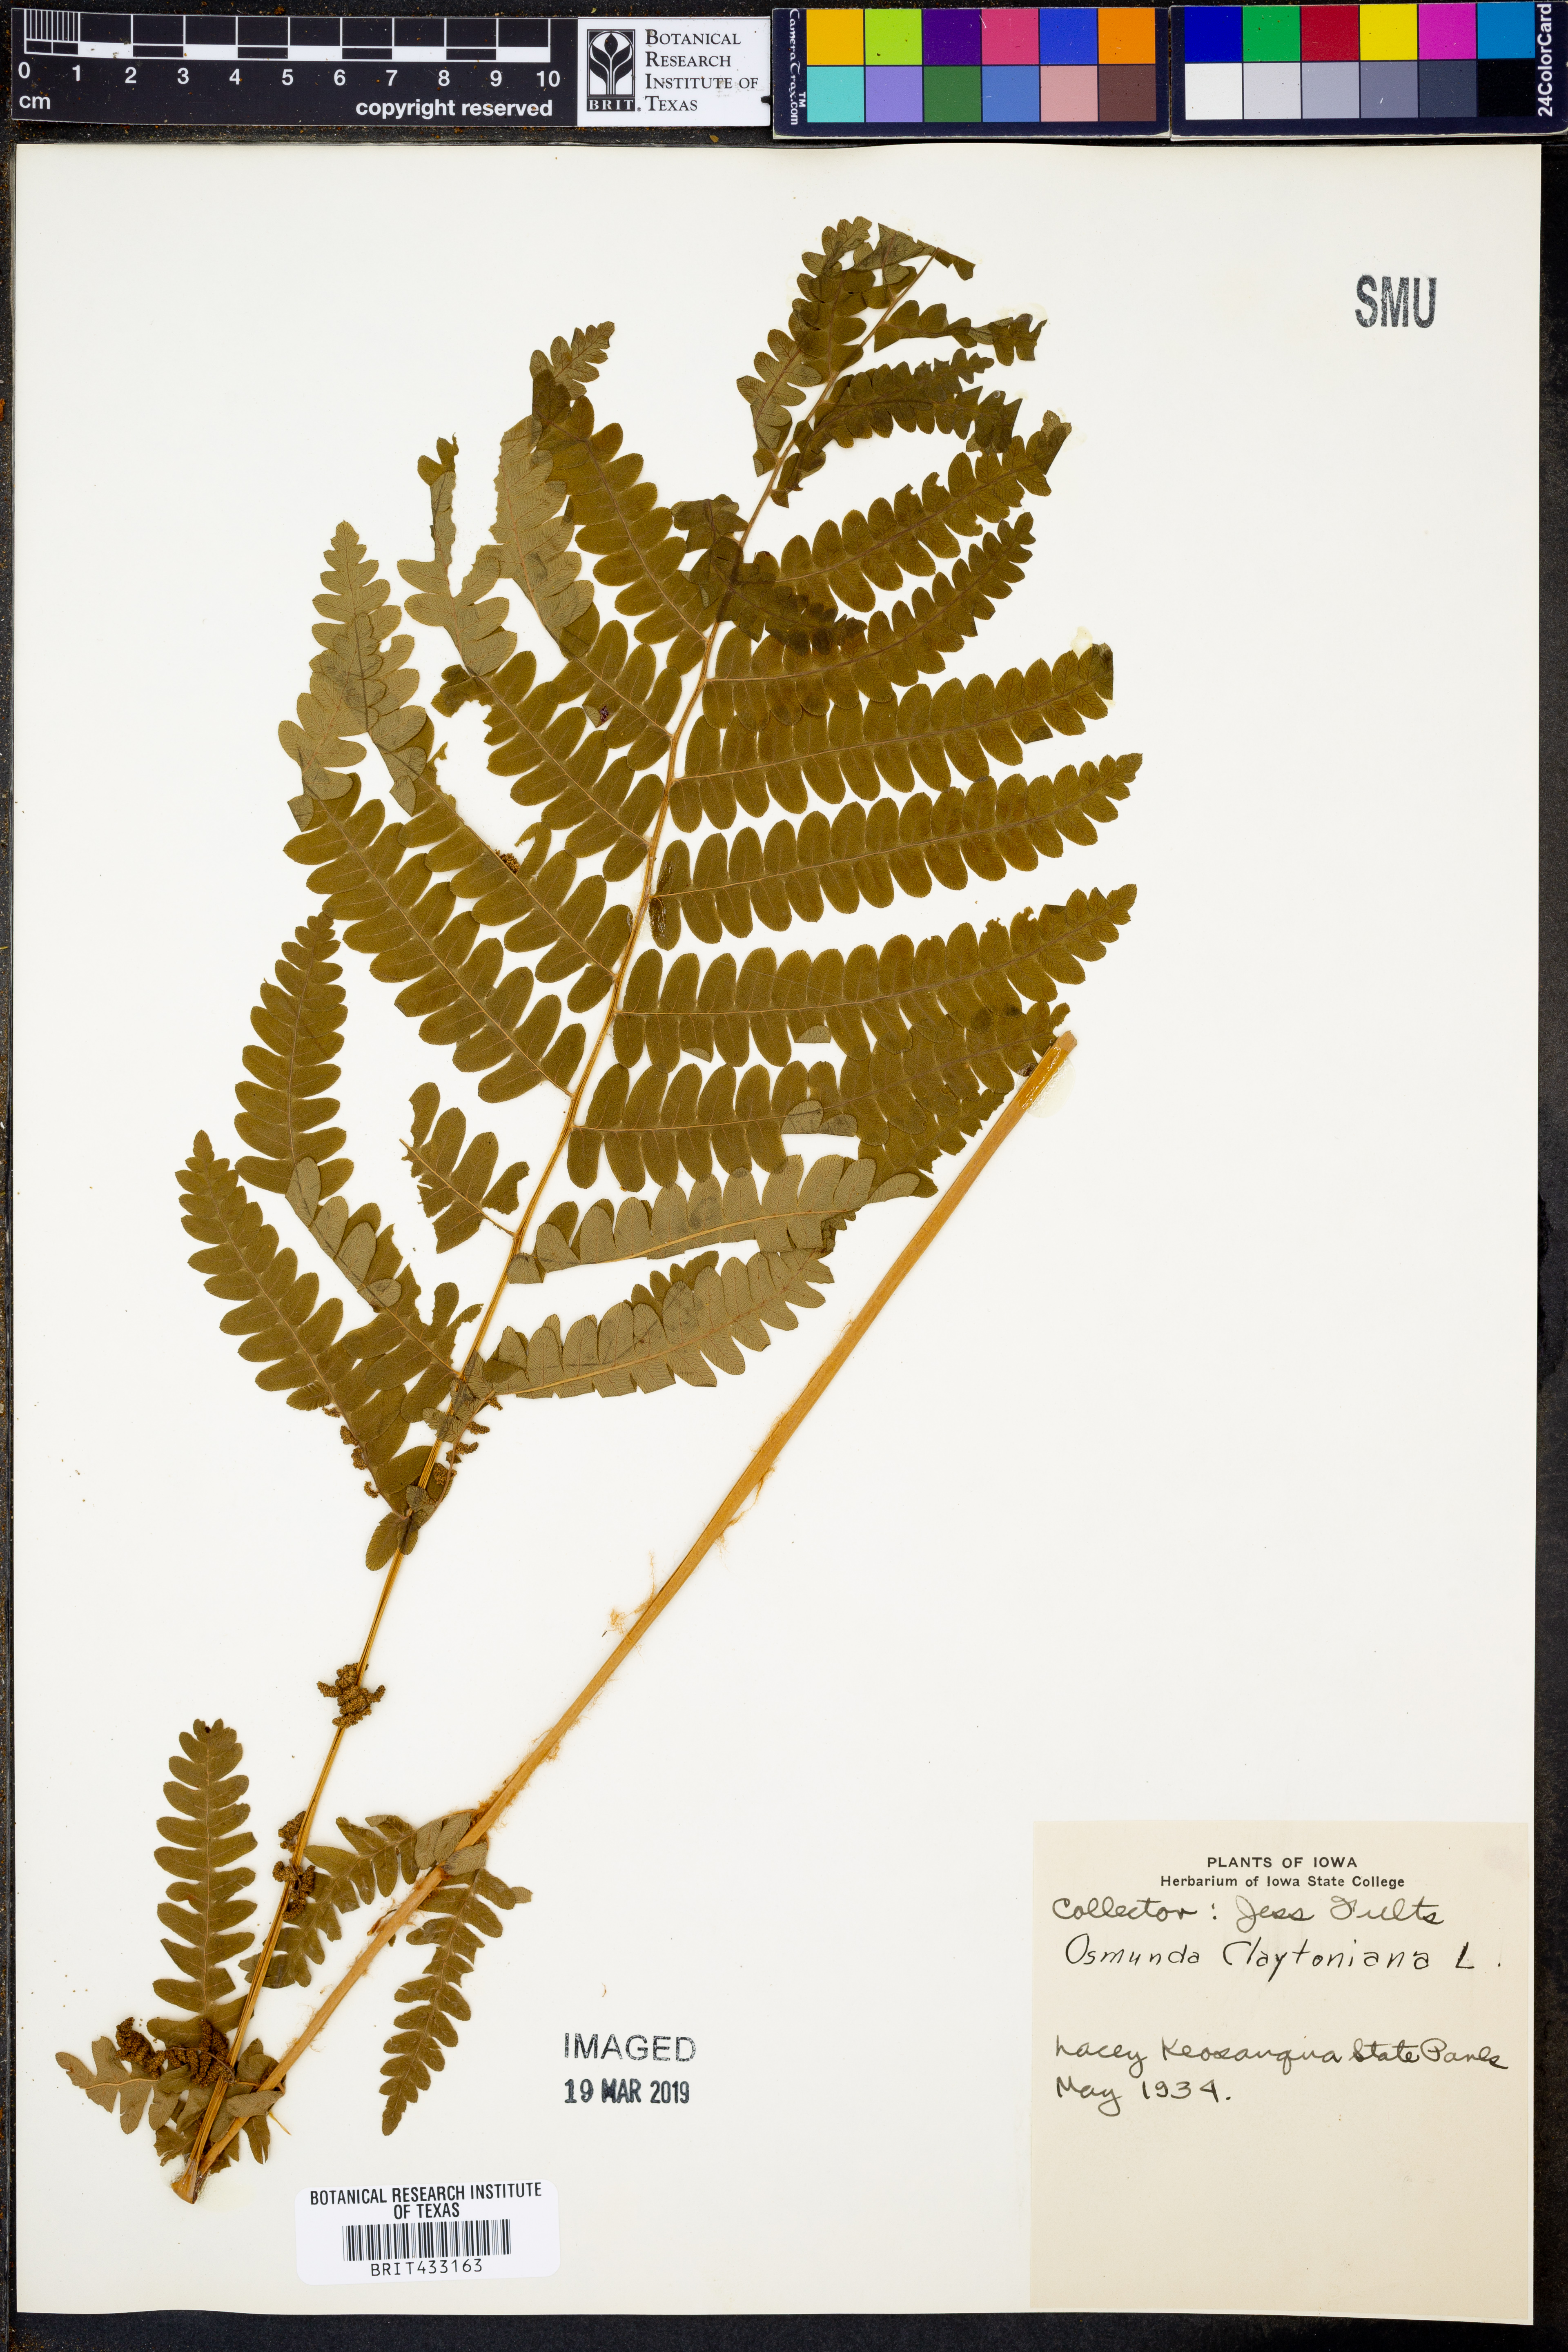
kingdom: Plantae
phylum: Tracheophyta
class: Polypodiopsida
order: Osmundales
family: Osmundaceae
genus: Claytosmunda
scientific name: Claytosmunda claytoniana
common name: Clayton's fern
